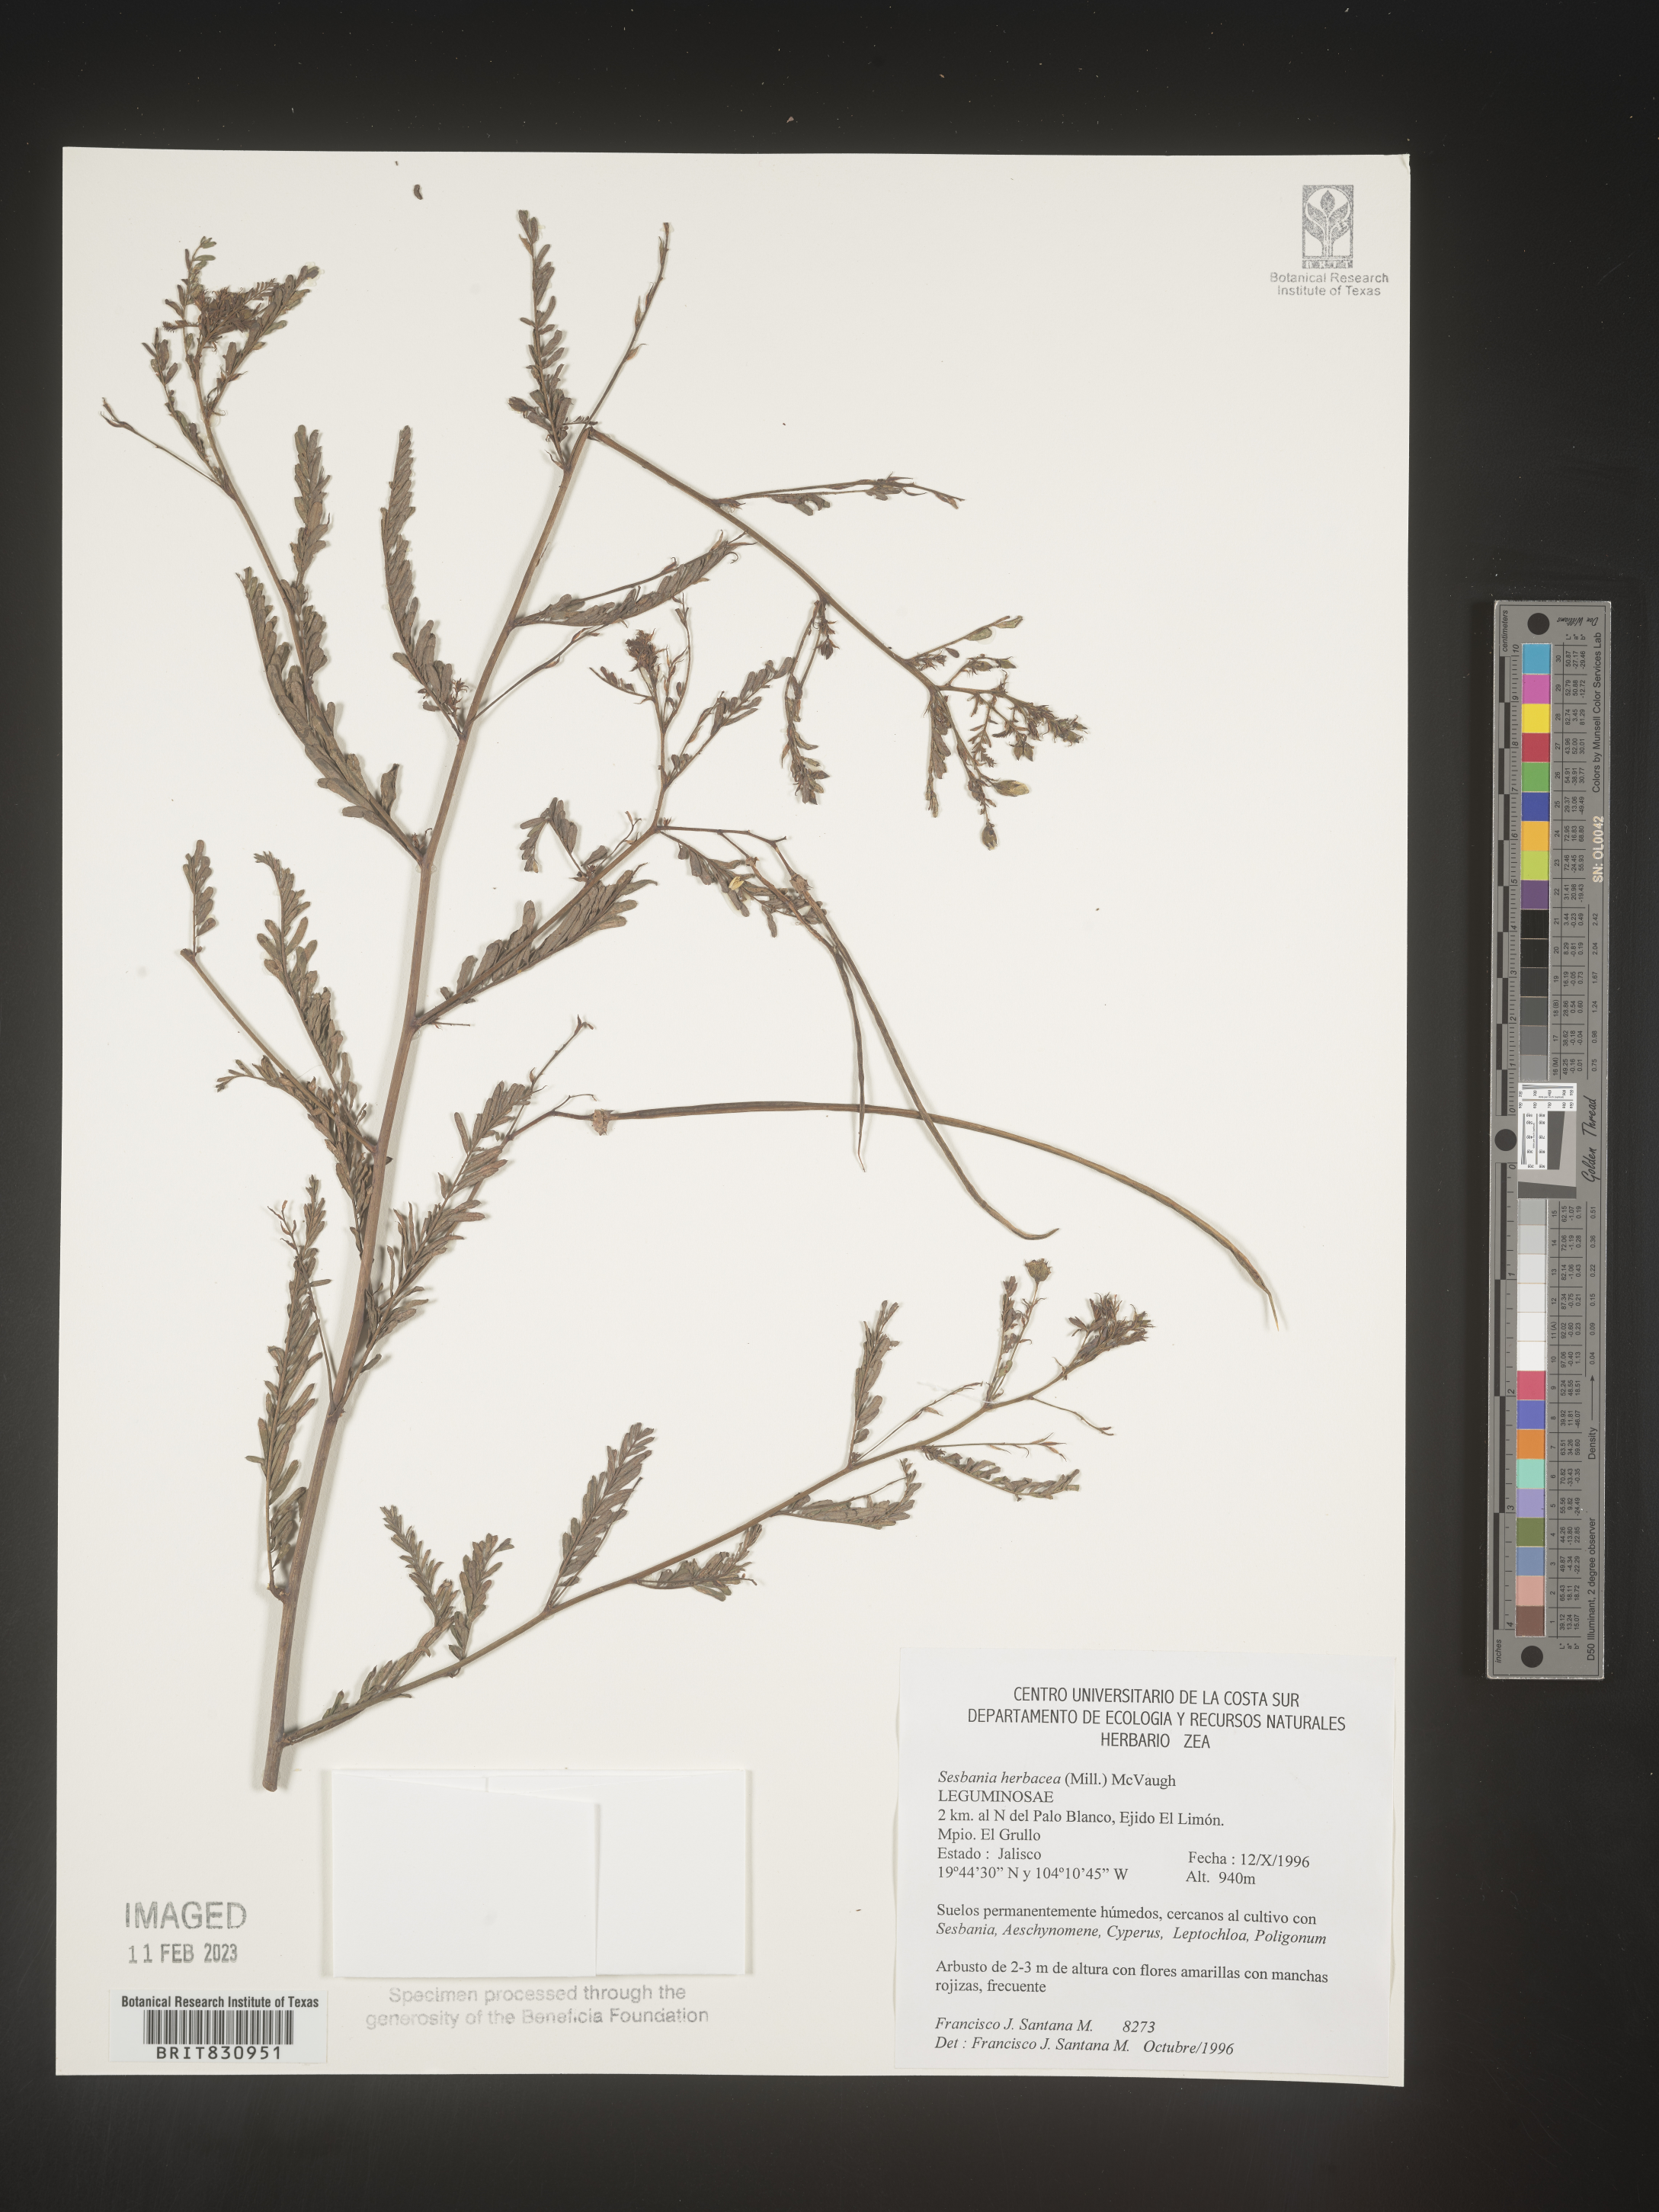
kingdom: Plantae
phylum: Tracheophyta
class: Magnoliopsida
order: Fabales
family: Fabaceae
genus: Sesbania
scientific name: Sesbania
